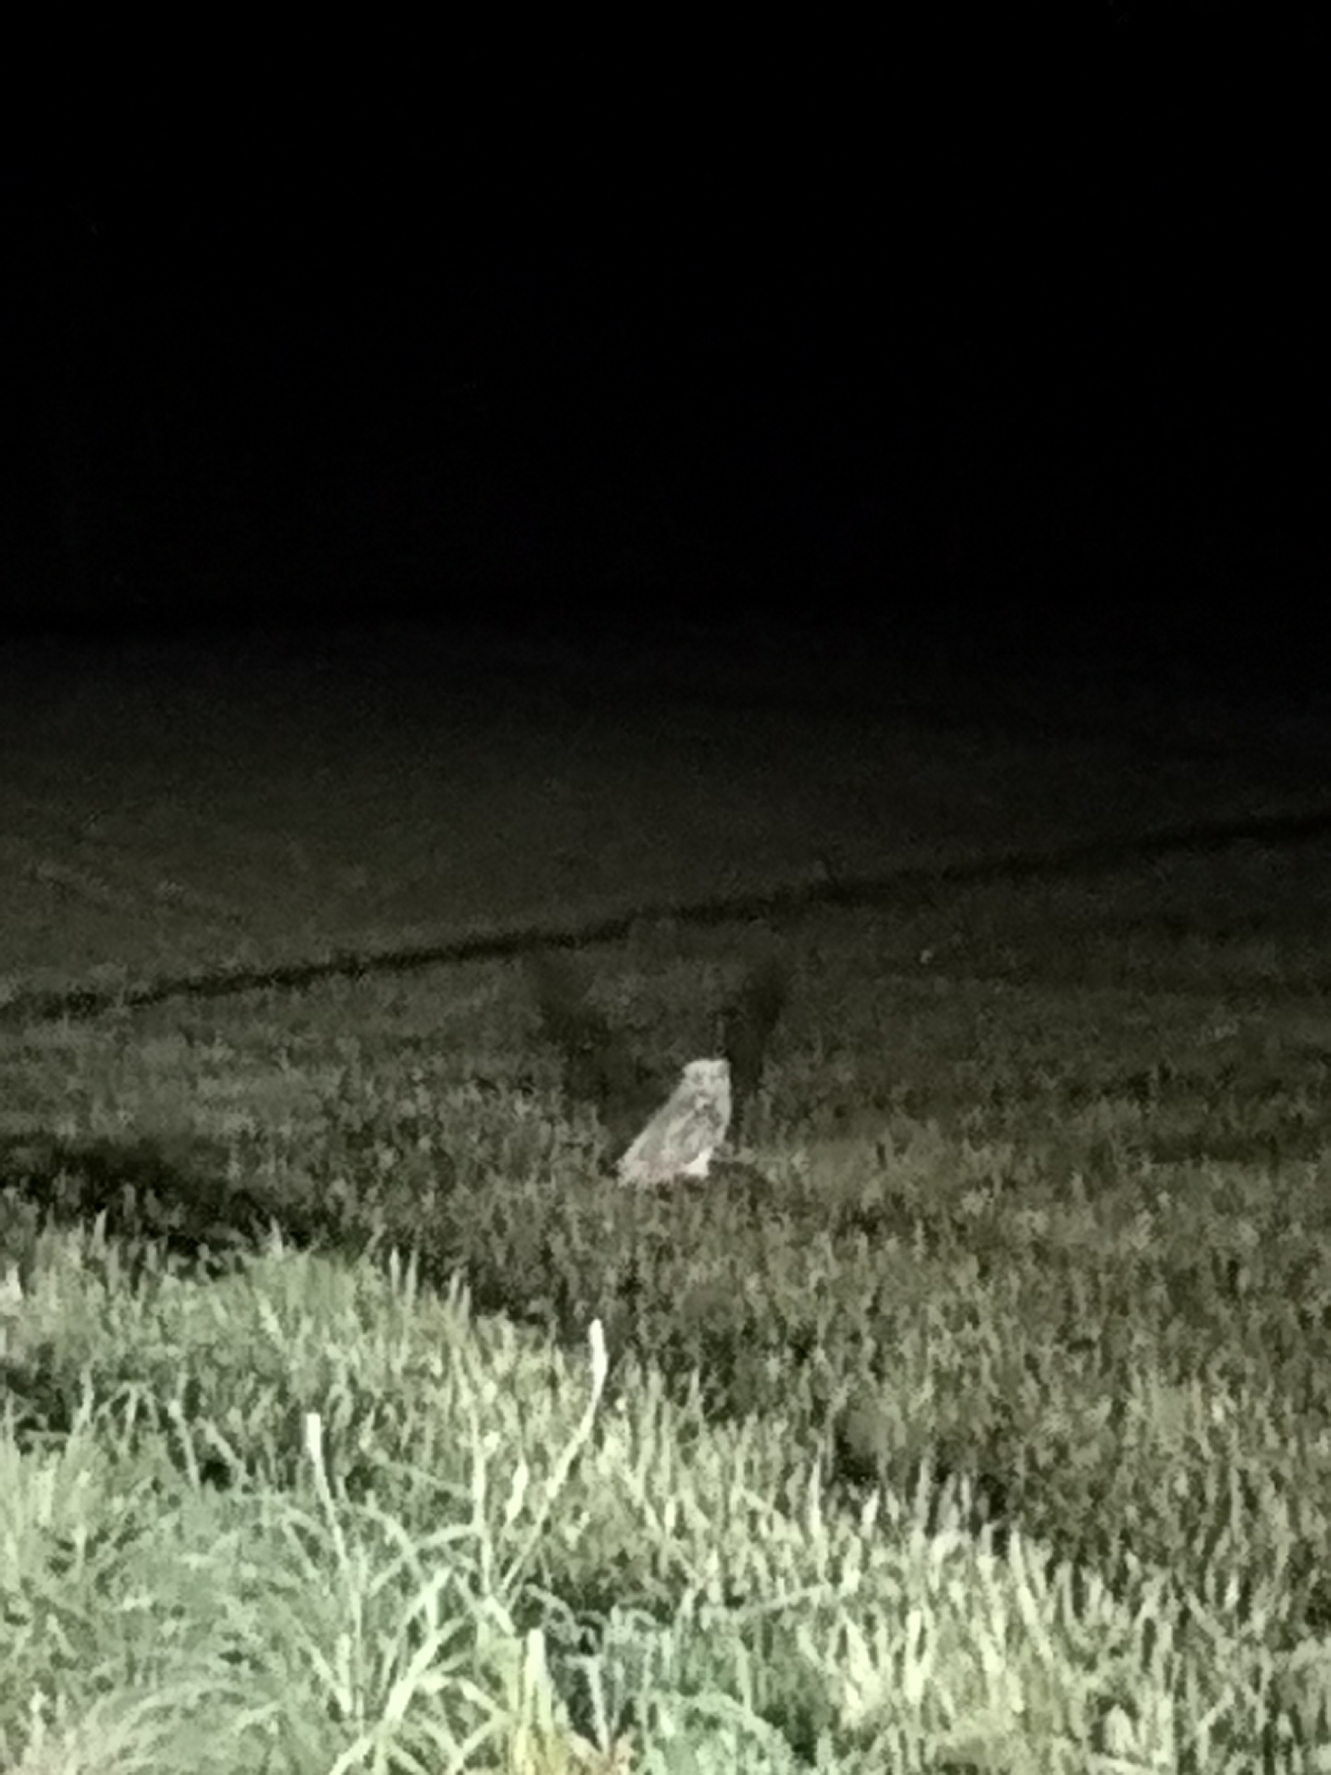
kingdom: Animalia
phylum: Chordata
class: Aves
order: Strigiformes
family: Strigidae
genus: Asio
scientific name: Asio flammeus
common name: Mosehornugle
